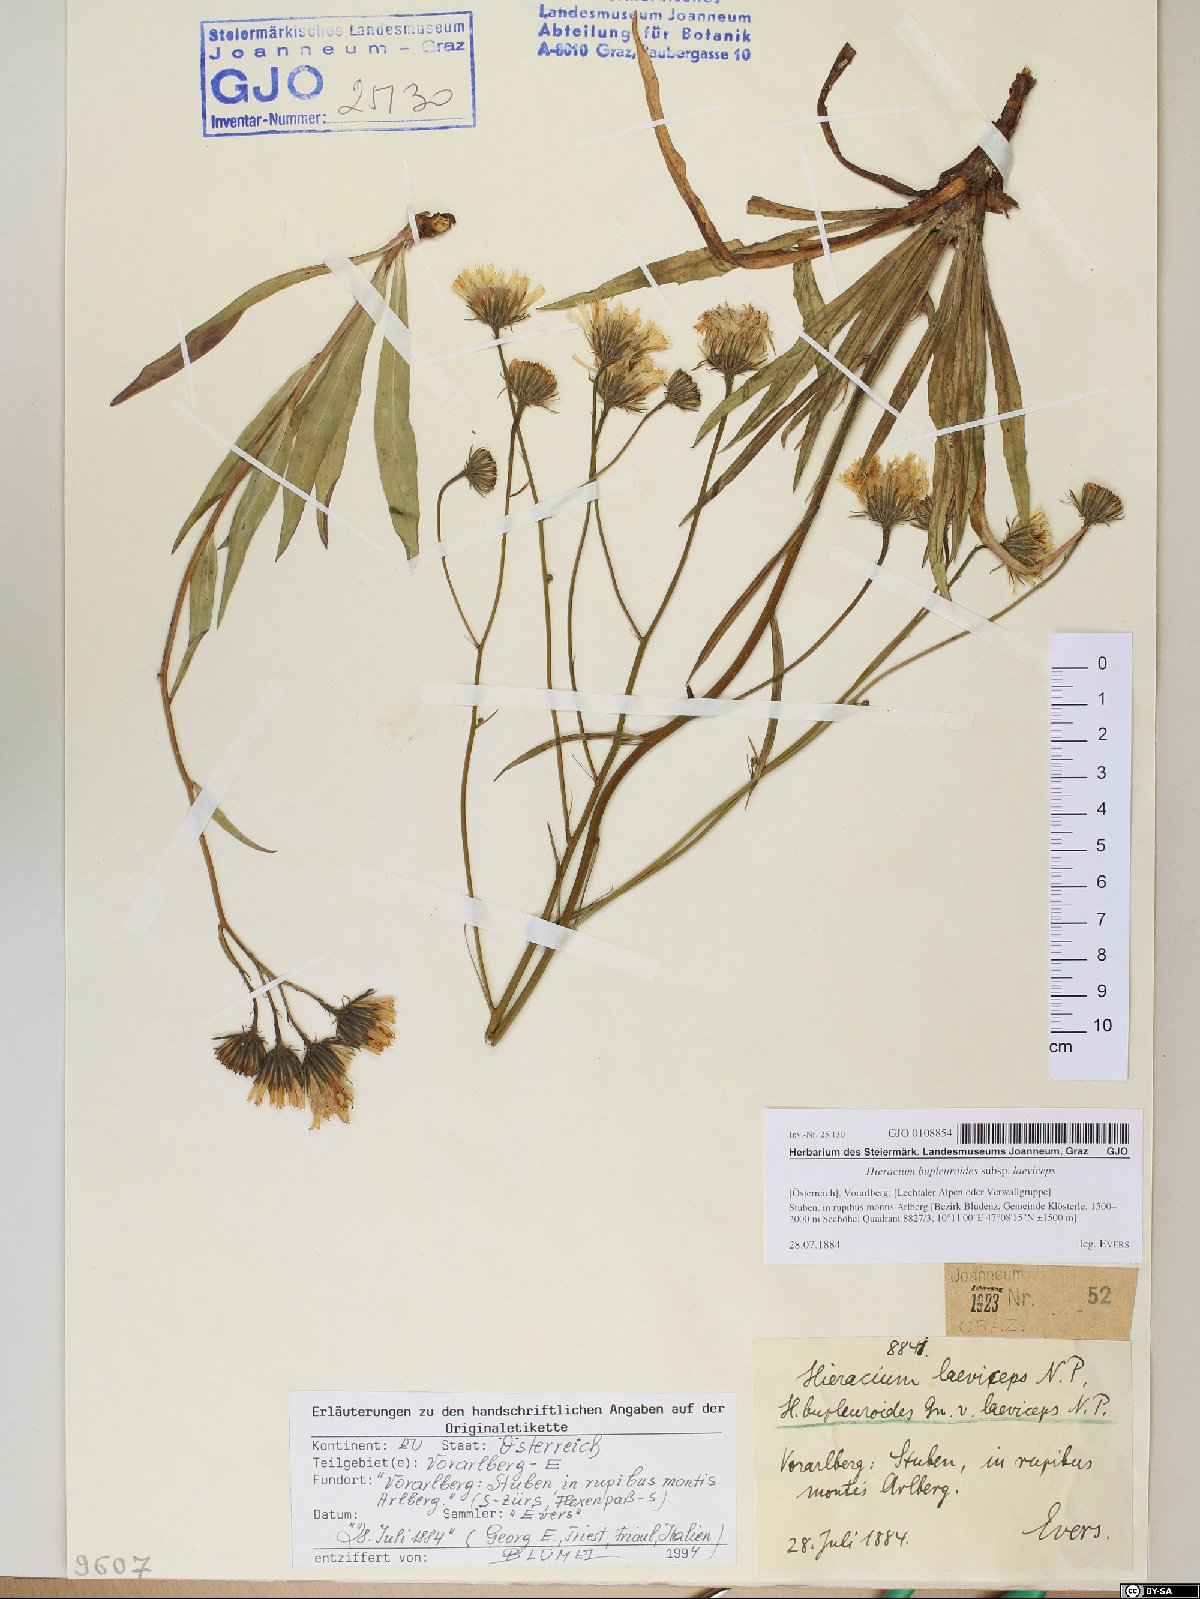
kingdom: Plantae
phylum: Tracheophyta
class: Magnoliopsida
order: Asterales
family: Asteraceae
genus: Hieracium
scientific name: Hieracium bupleuroides
